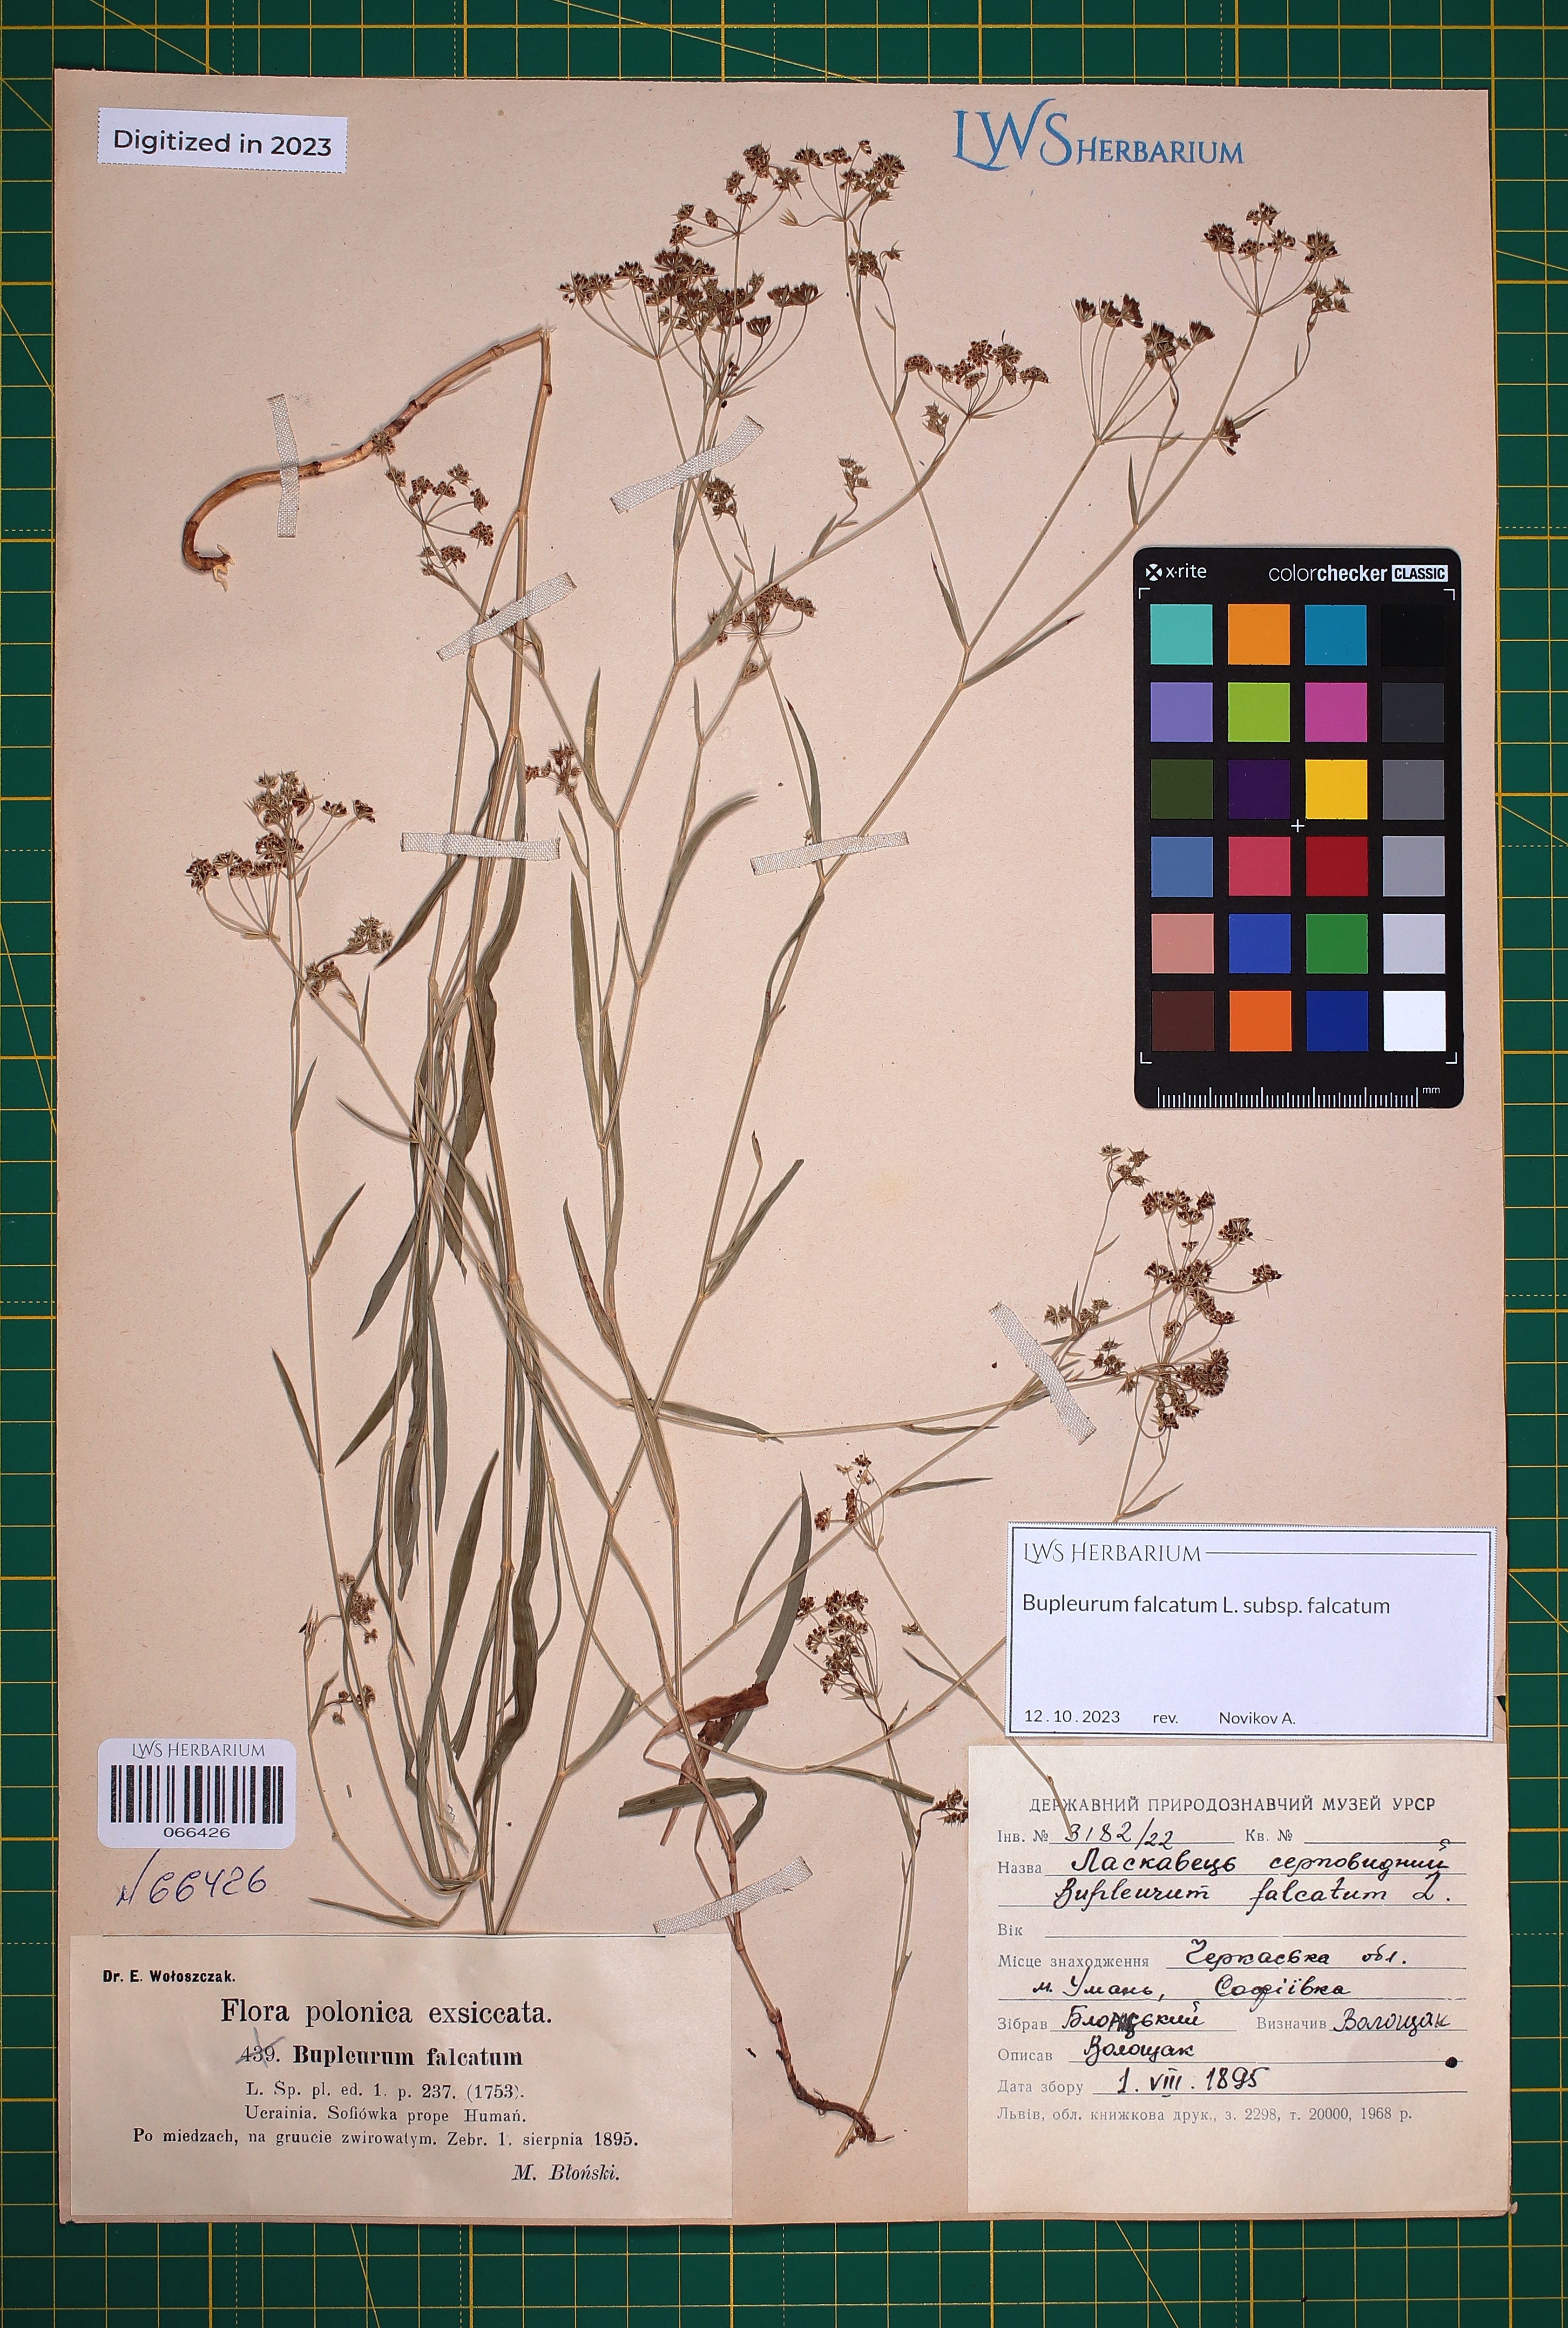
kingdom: Plantae
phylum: Tracheophyta
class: Magnoliopsida
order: Apiales
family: Apiaceae
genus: Bupleurum
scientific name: Bupleurum falcatum
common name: Sickle-leaved hare's-ear
